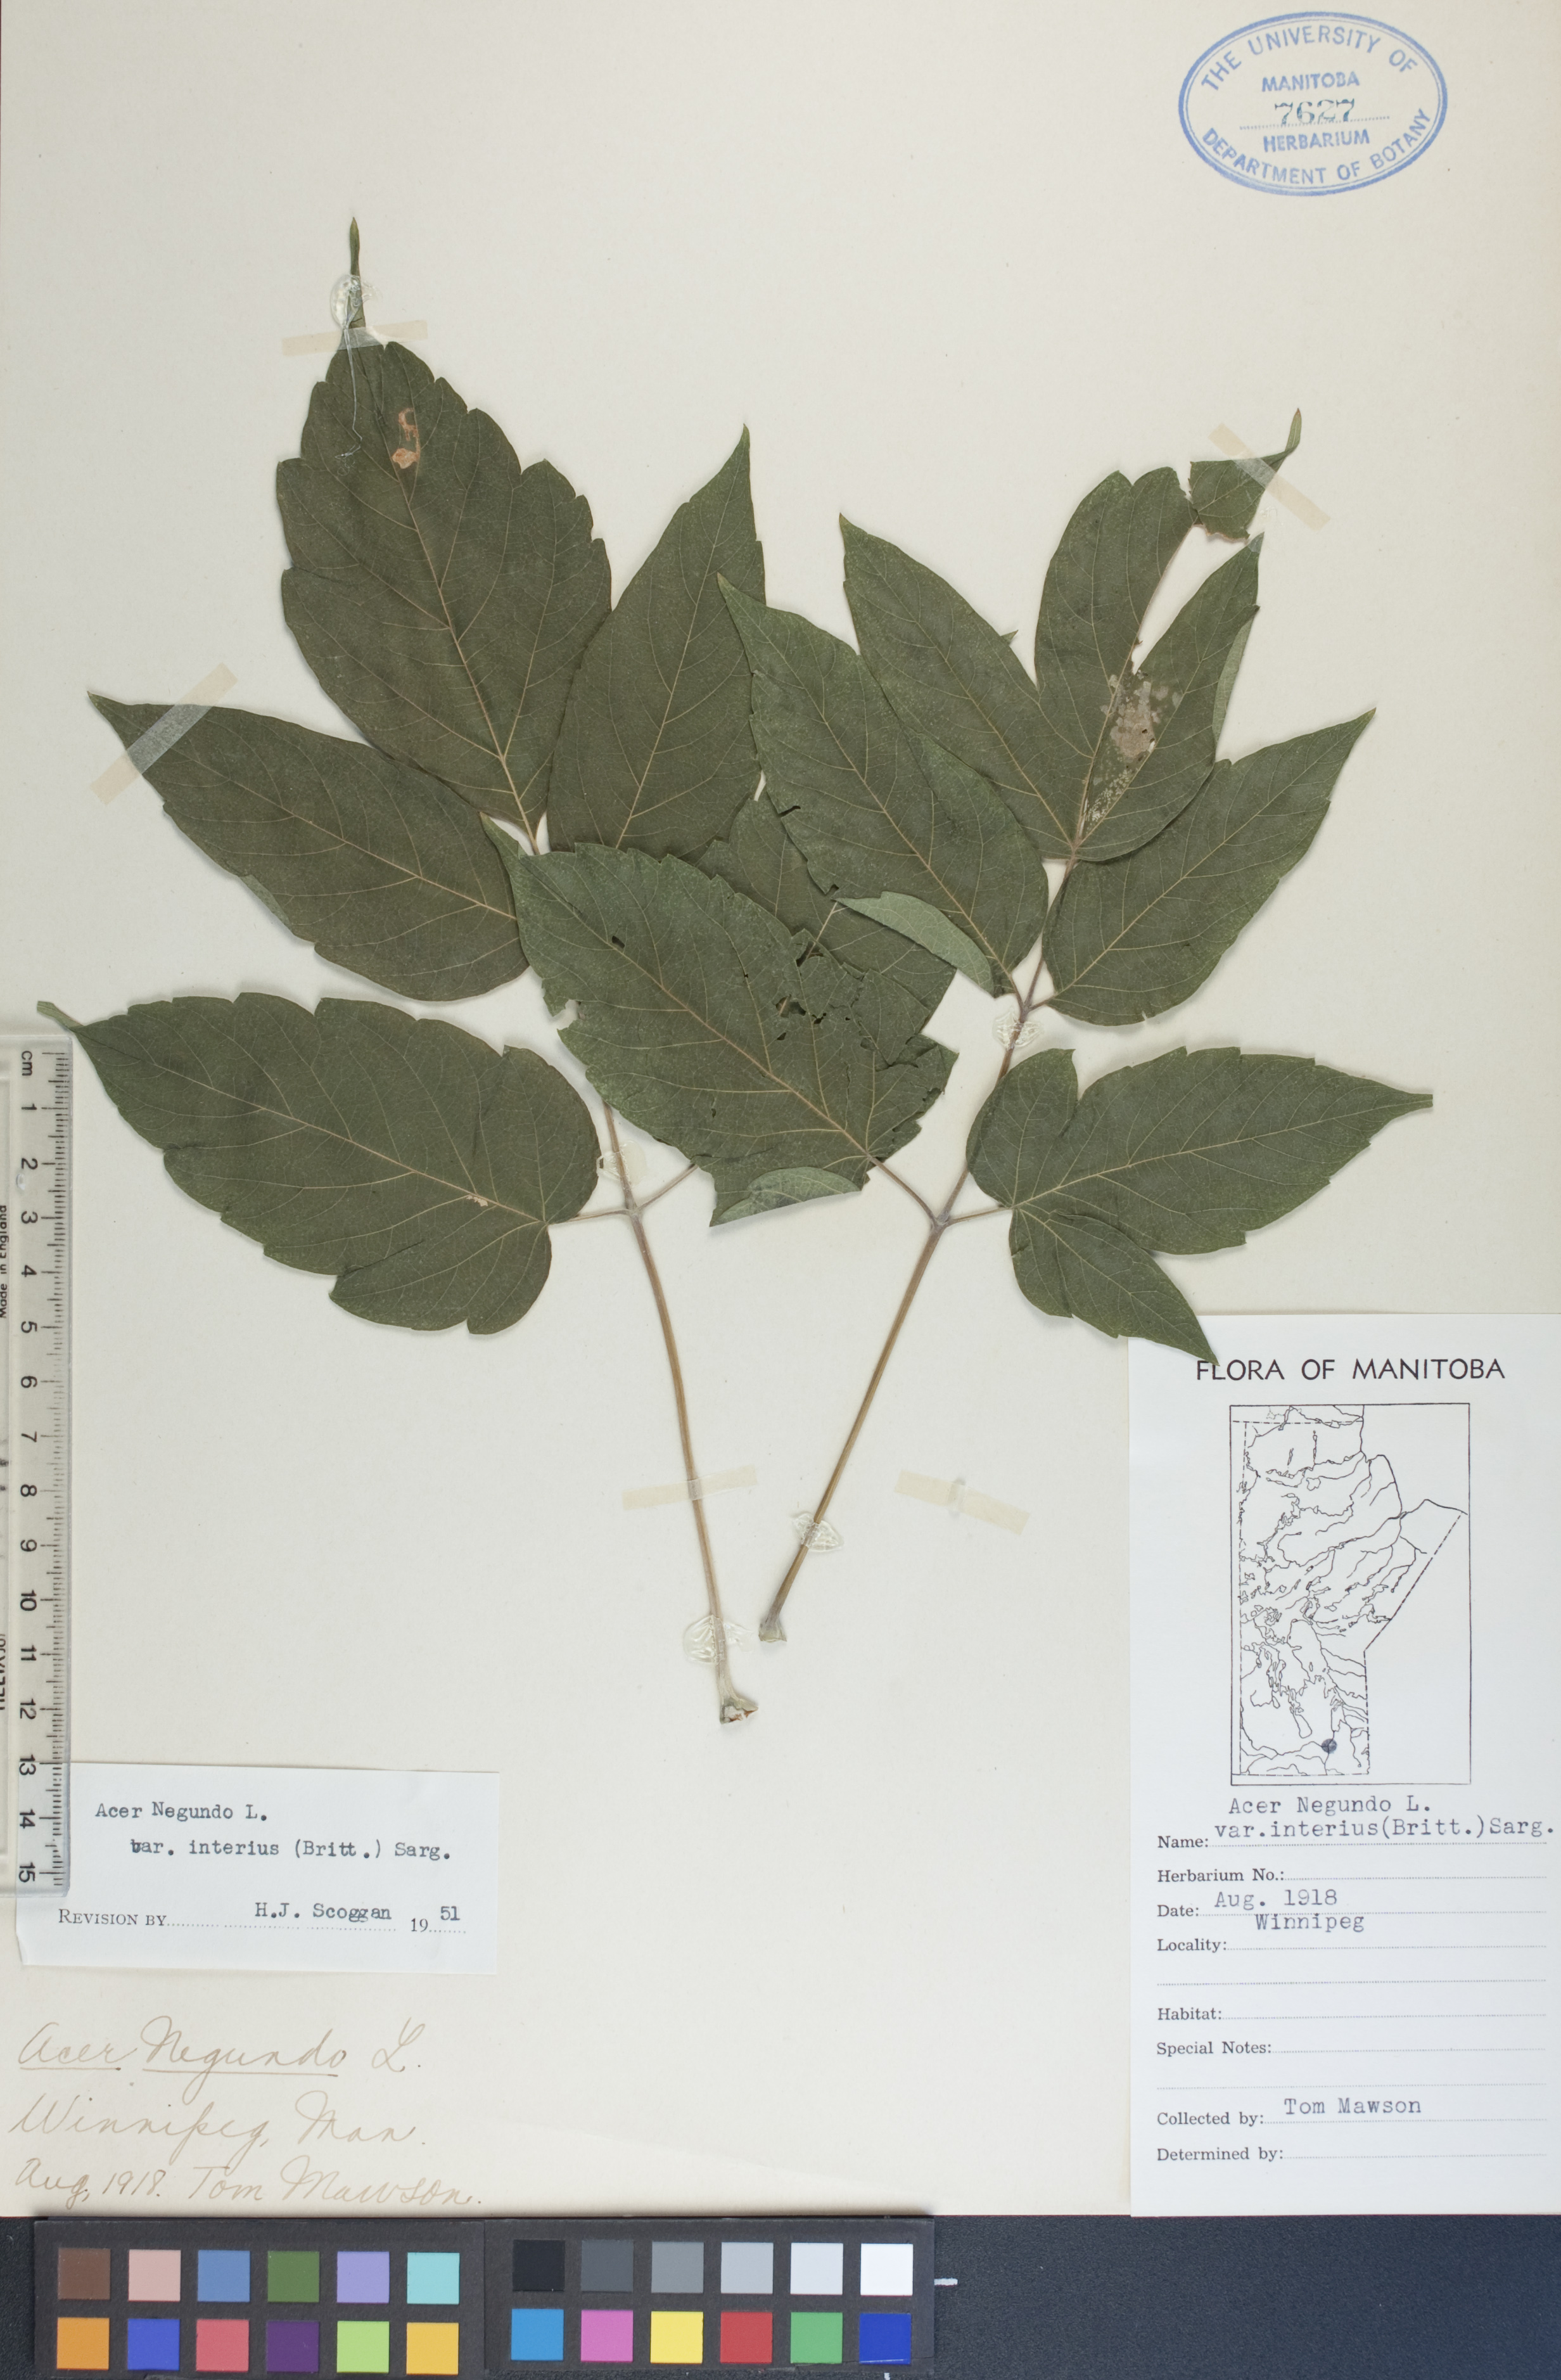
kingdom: Plantae
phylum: Tracheophyta
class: Magnoliopsida
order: Sapindales
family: Sapindaceae
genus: Acer
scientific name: Acer negundo
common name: Ashleaf maple
